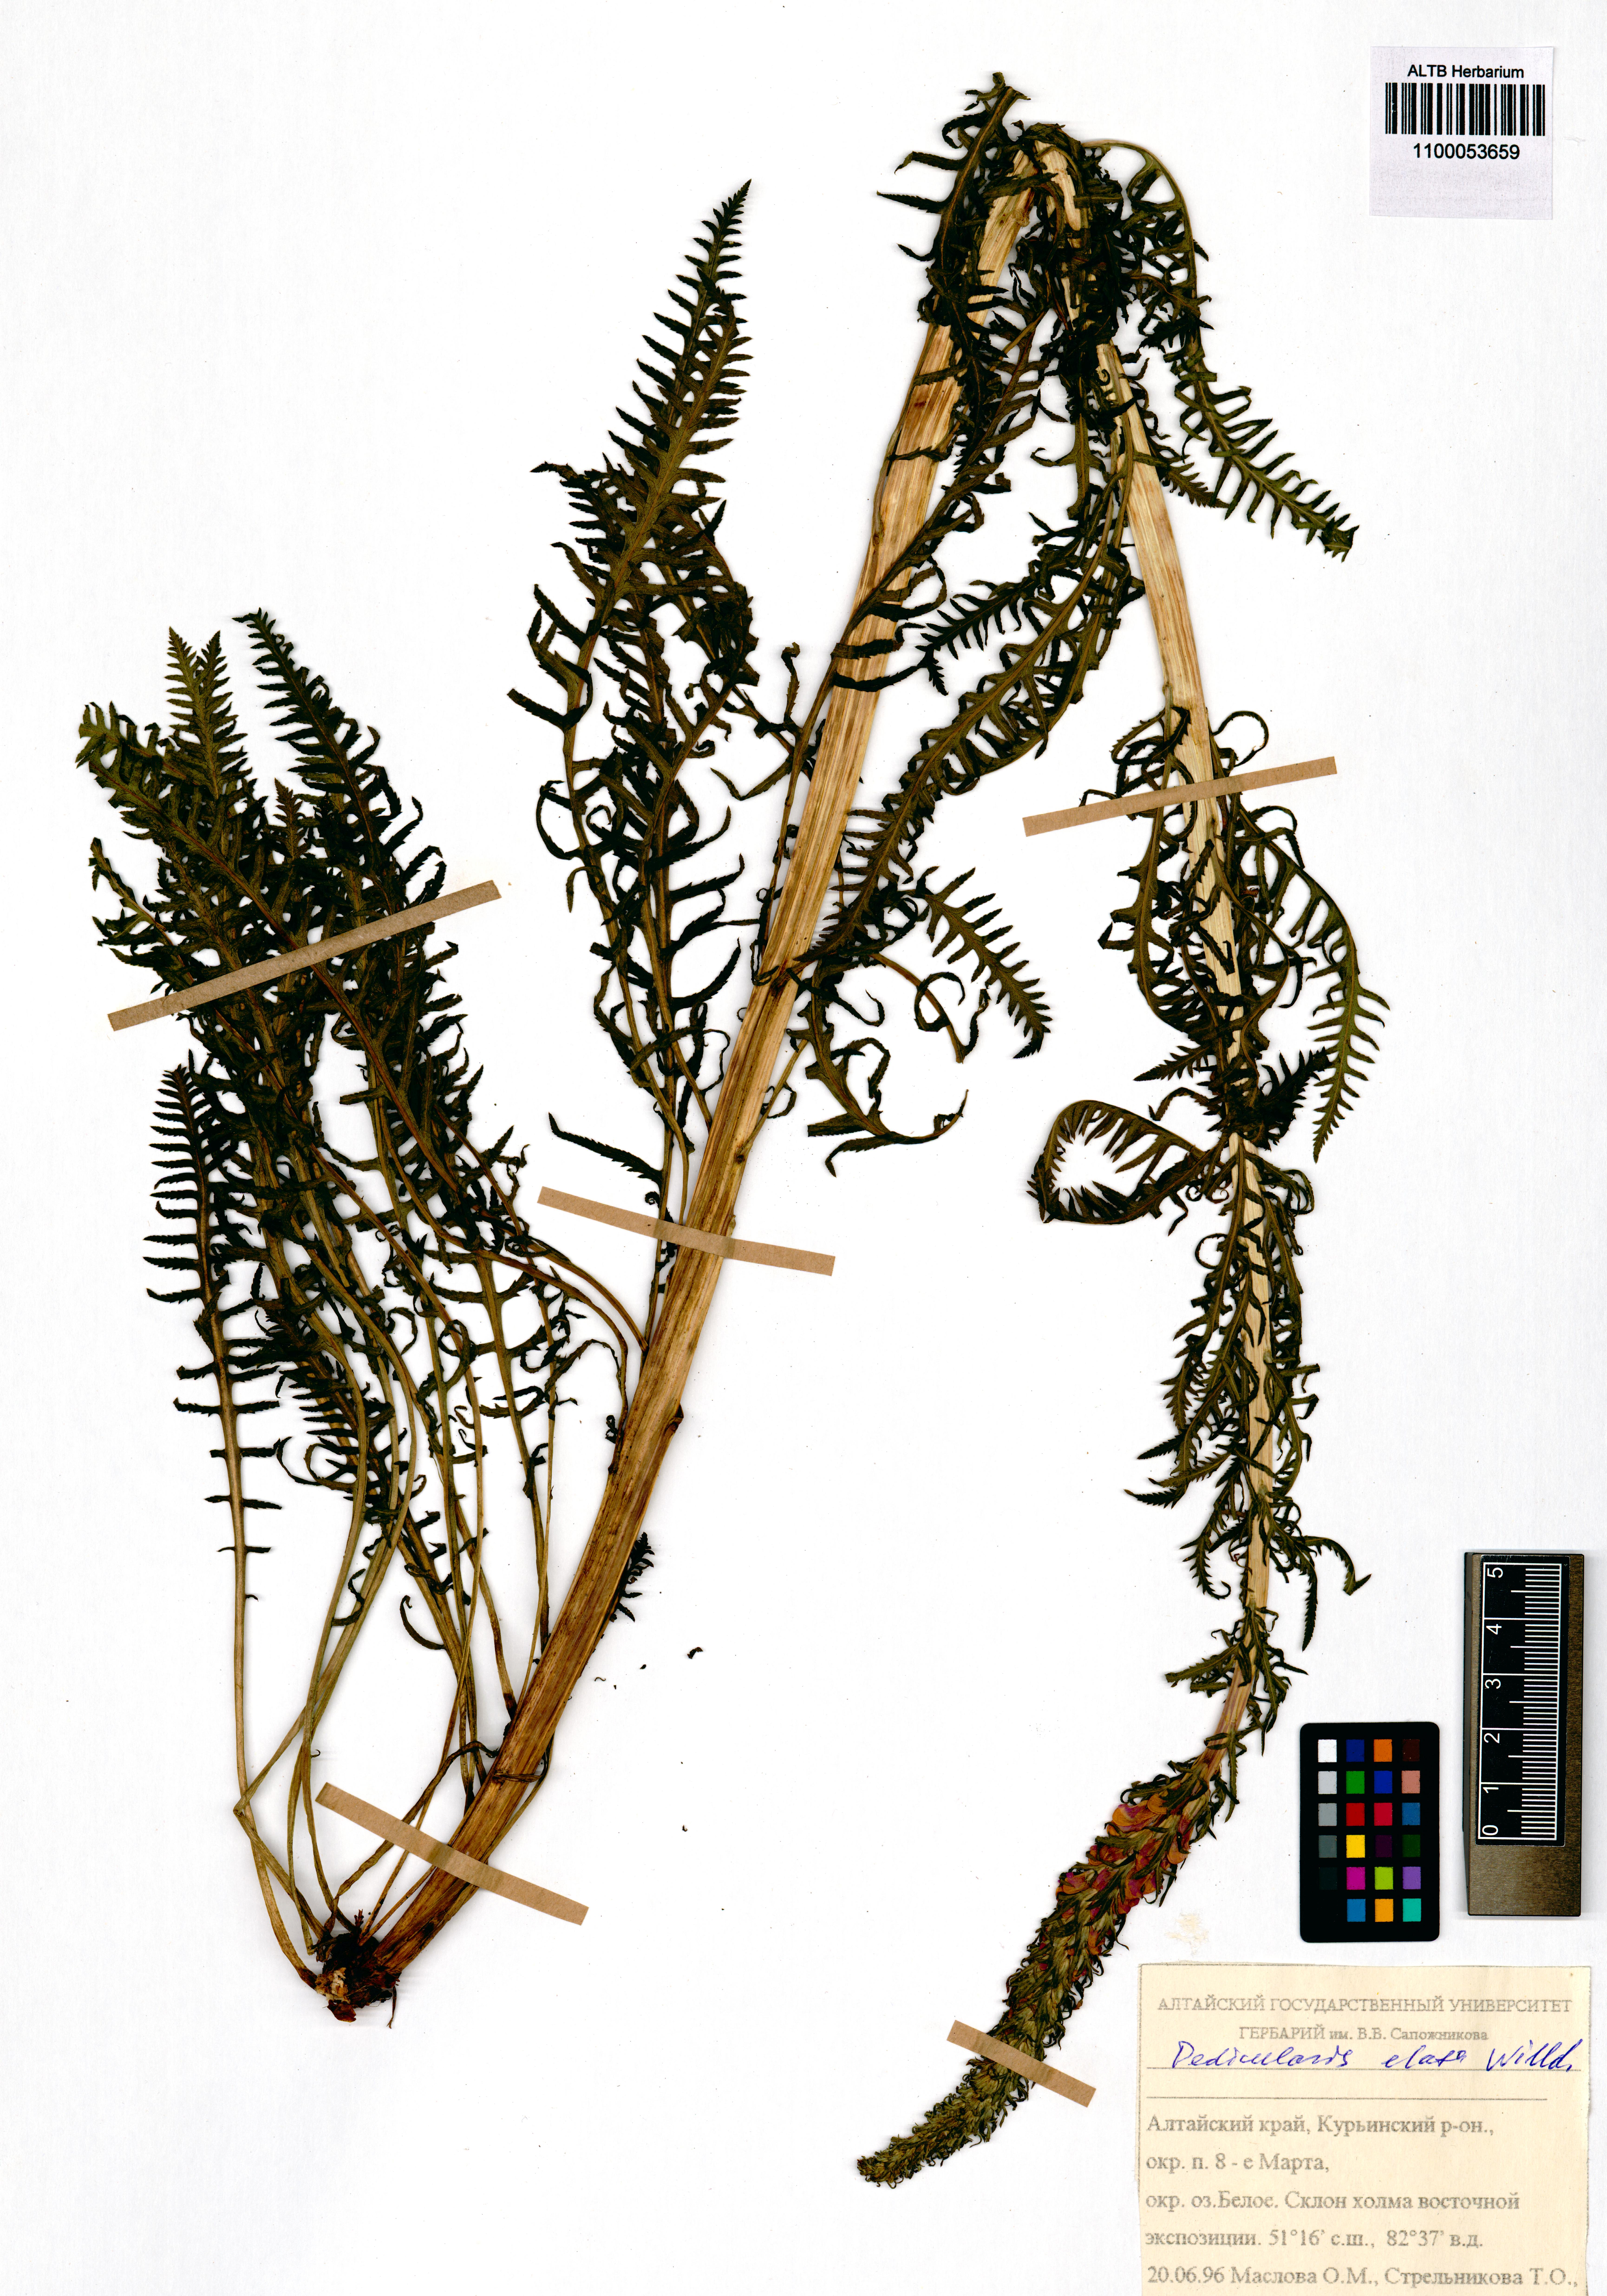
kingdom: Plantae
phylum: Tracheophyta
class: Magnoliopsida
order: Lamiales
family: Orobanchaceae
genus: Pedicularis
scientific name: Pedicularis elata
